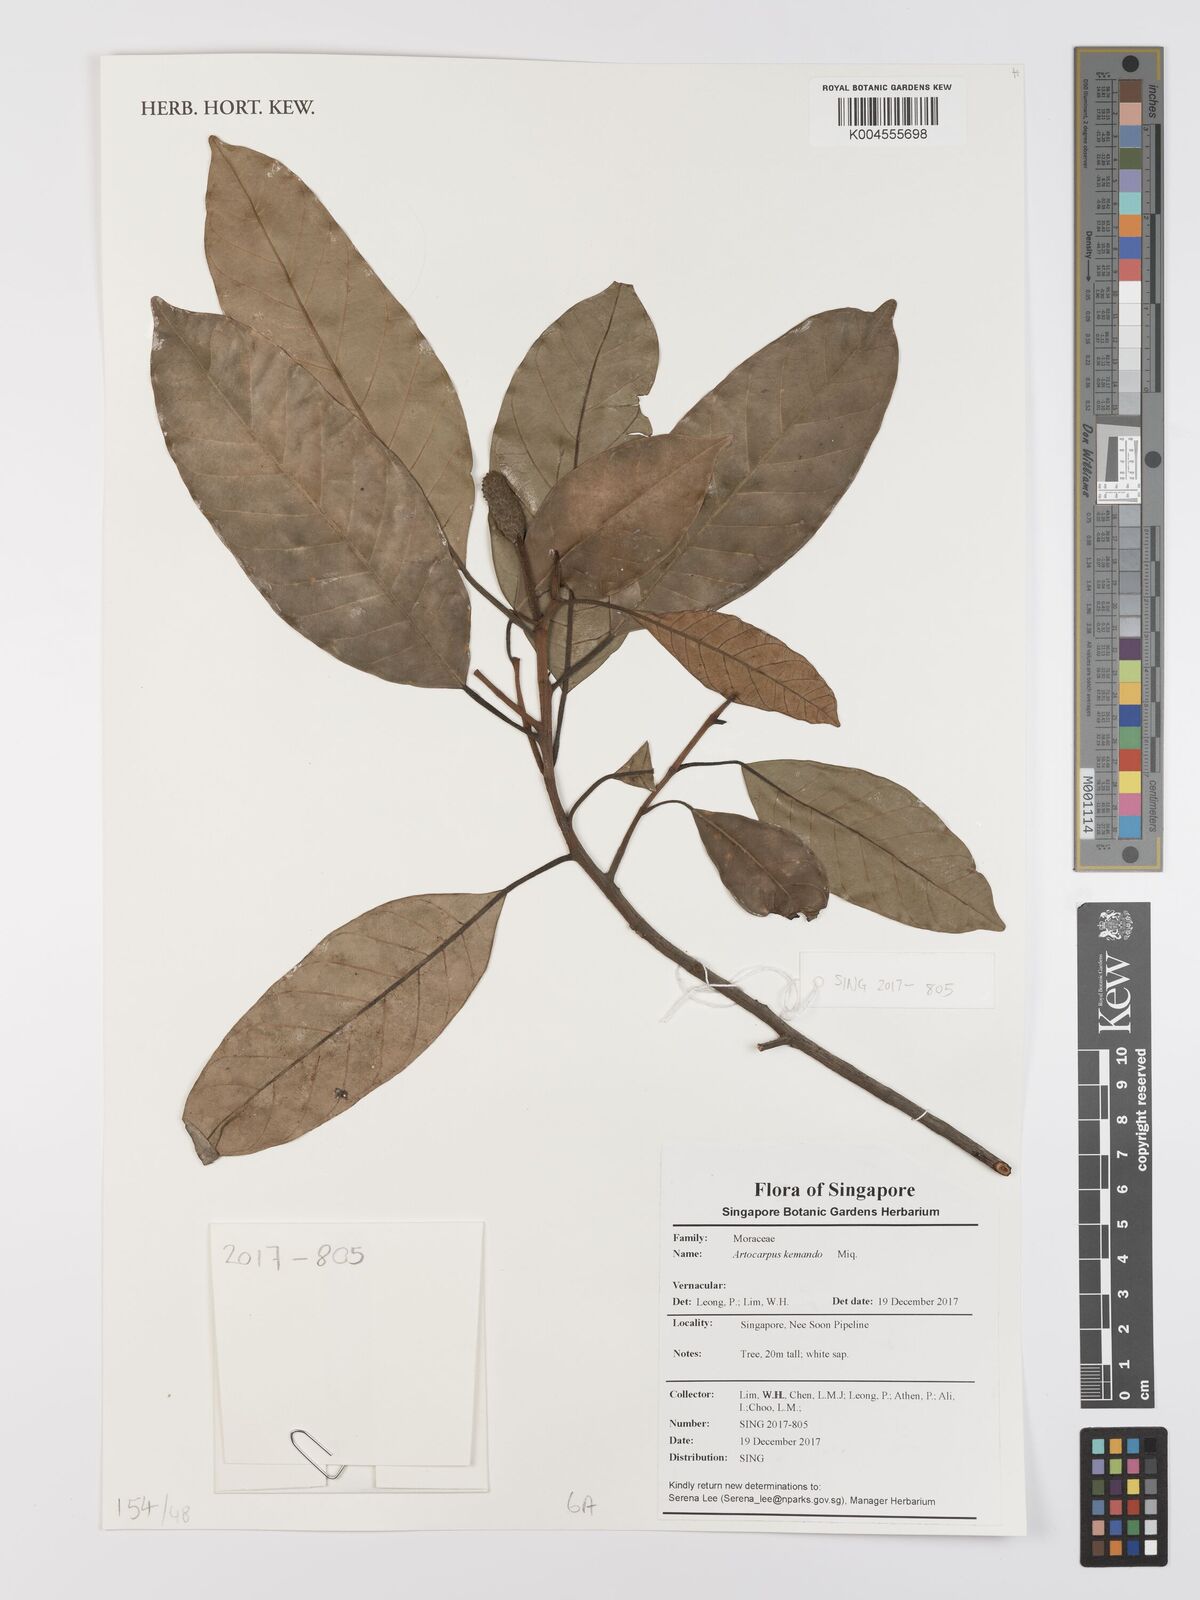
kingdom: Plantae
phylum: Tracheophyta
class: Magnoliopsida
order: Rosales
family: Moraceae
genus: Artocarpus
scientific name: Artocarpus kemando
